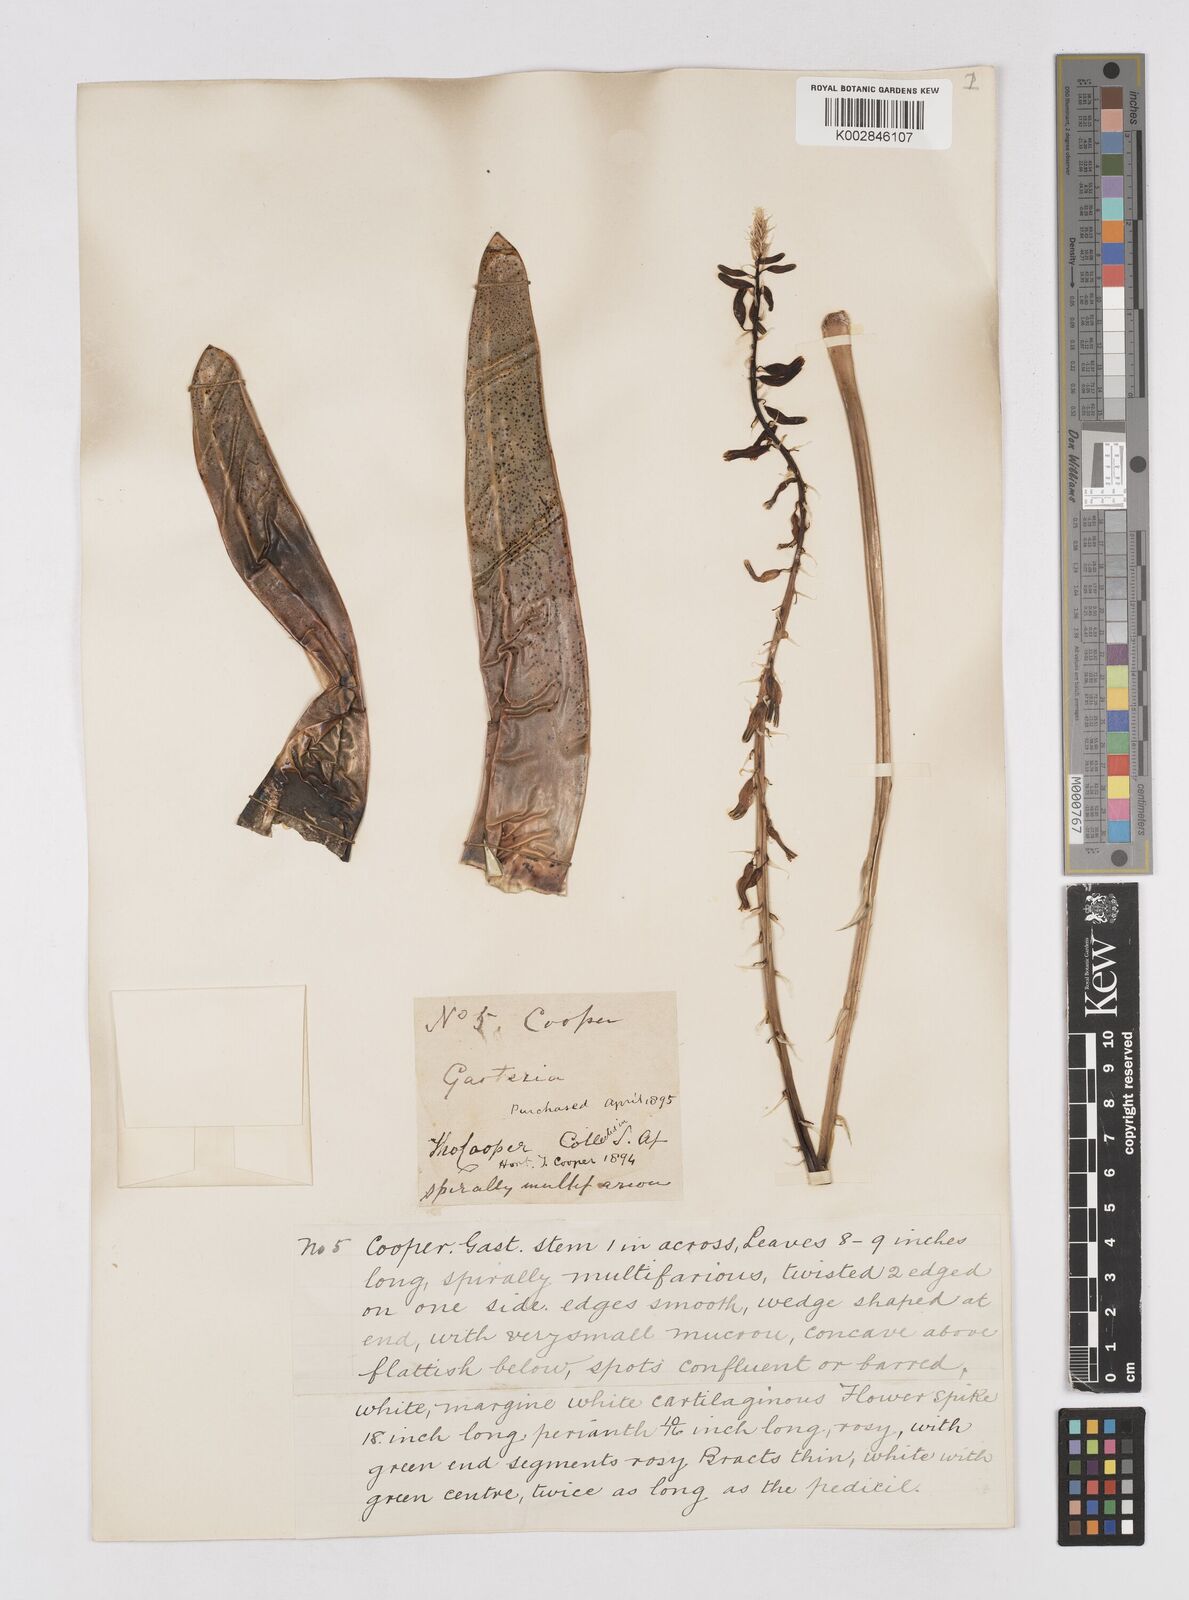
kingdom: Plantae
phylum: Tracheophyta
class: Liliopsida
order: Asparagales
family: Asphodelaceae
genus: Gasteria
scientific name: Gasteria
